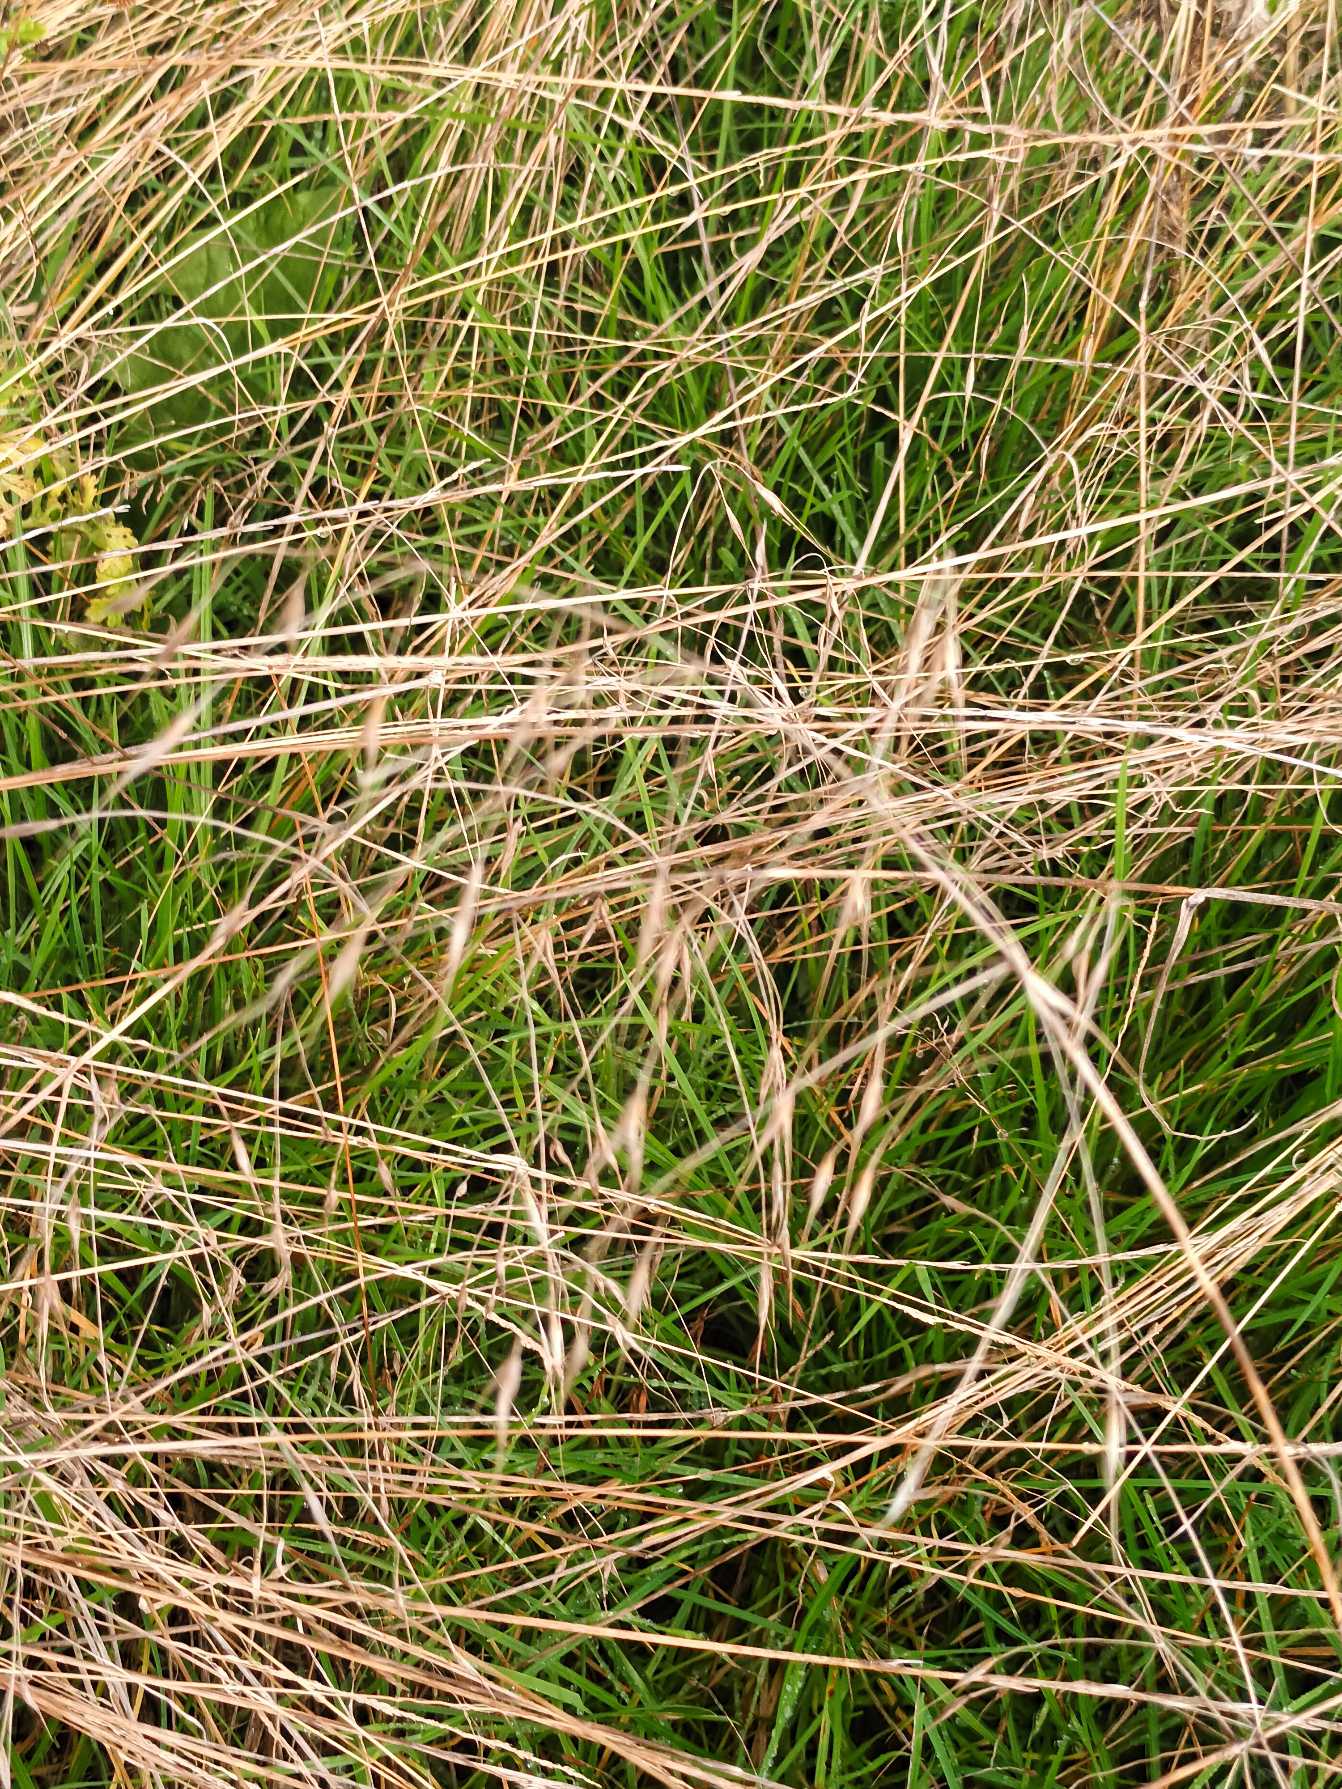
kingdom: Plantae
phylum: Tracheophyta
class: Liliopsida
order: Poales
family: Poaceae
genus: Bromus
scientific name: Bromus sterilis
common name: Gold hejre
